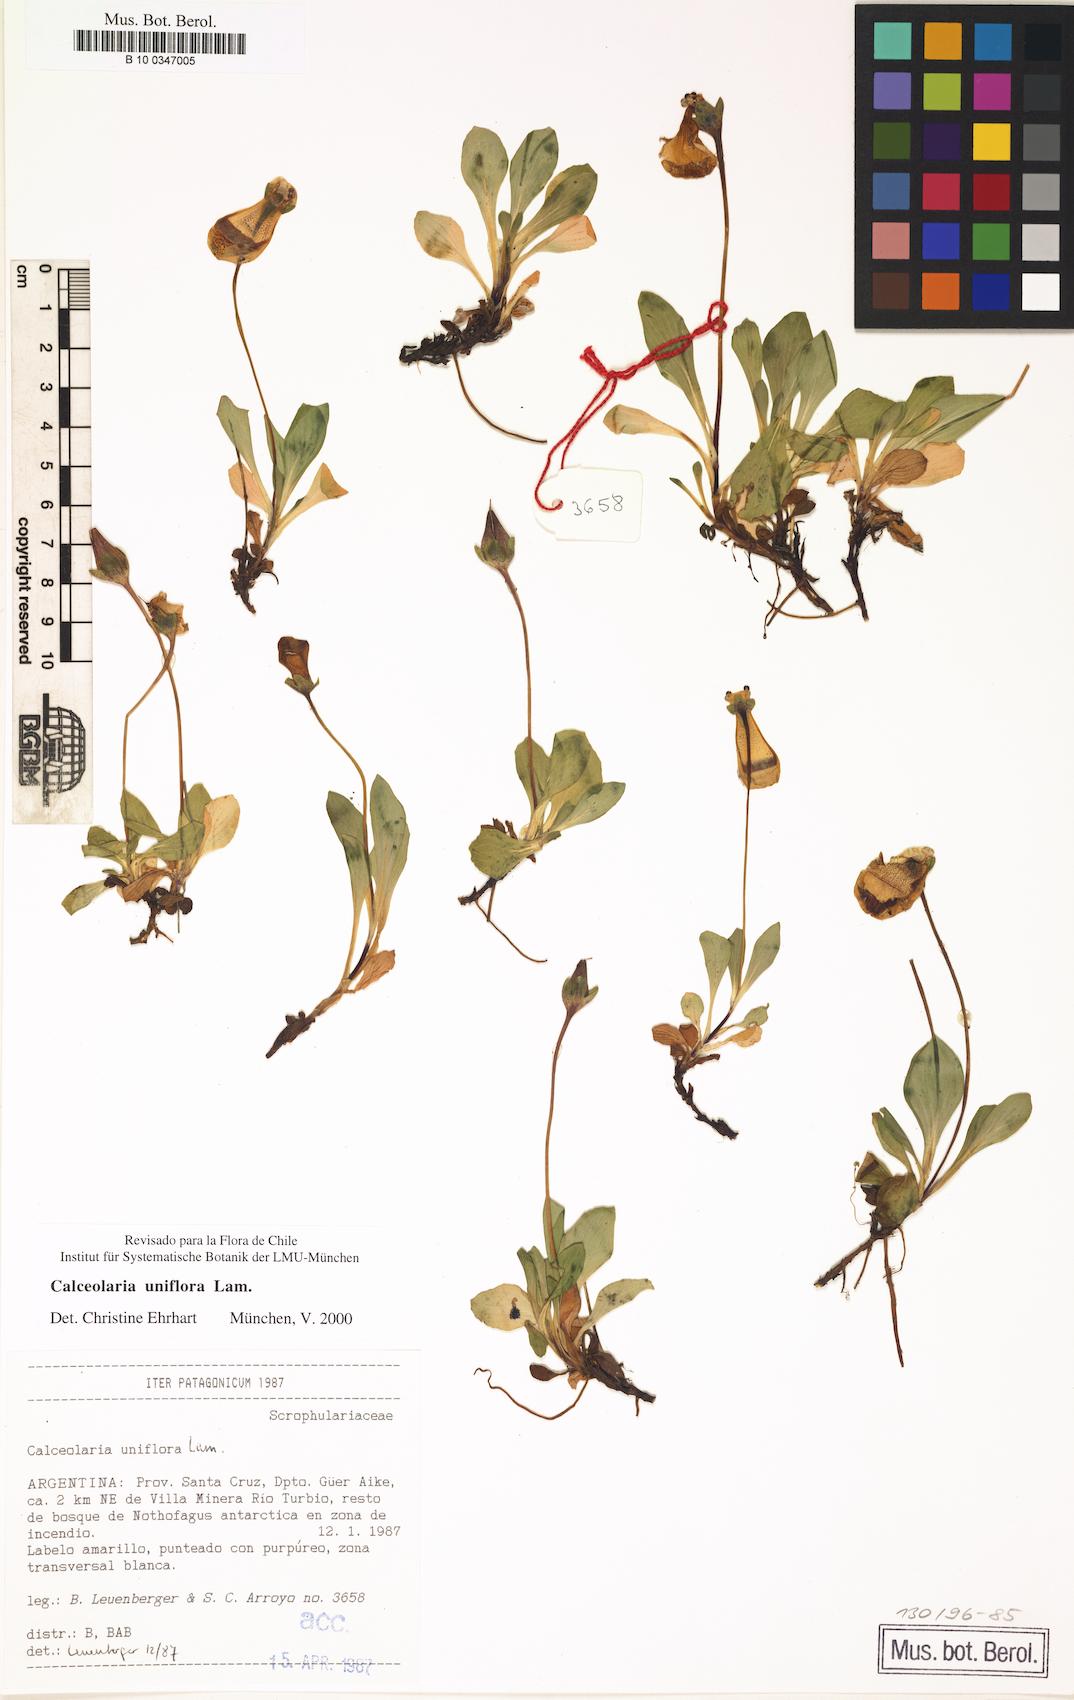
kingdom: Plantae
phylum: Tracheophyta
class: Magnoliopsida
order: Lamiales
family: Calceolariaceae
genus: Calceolaria
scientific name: Calceolaria uniflora
